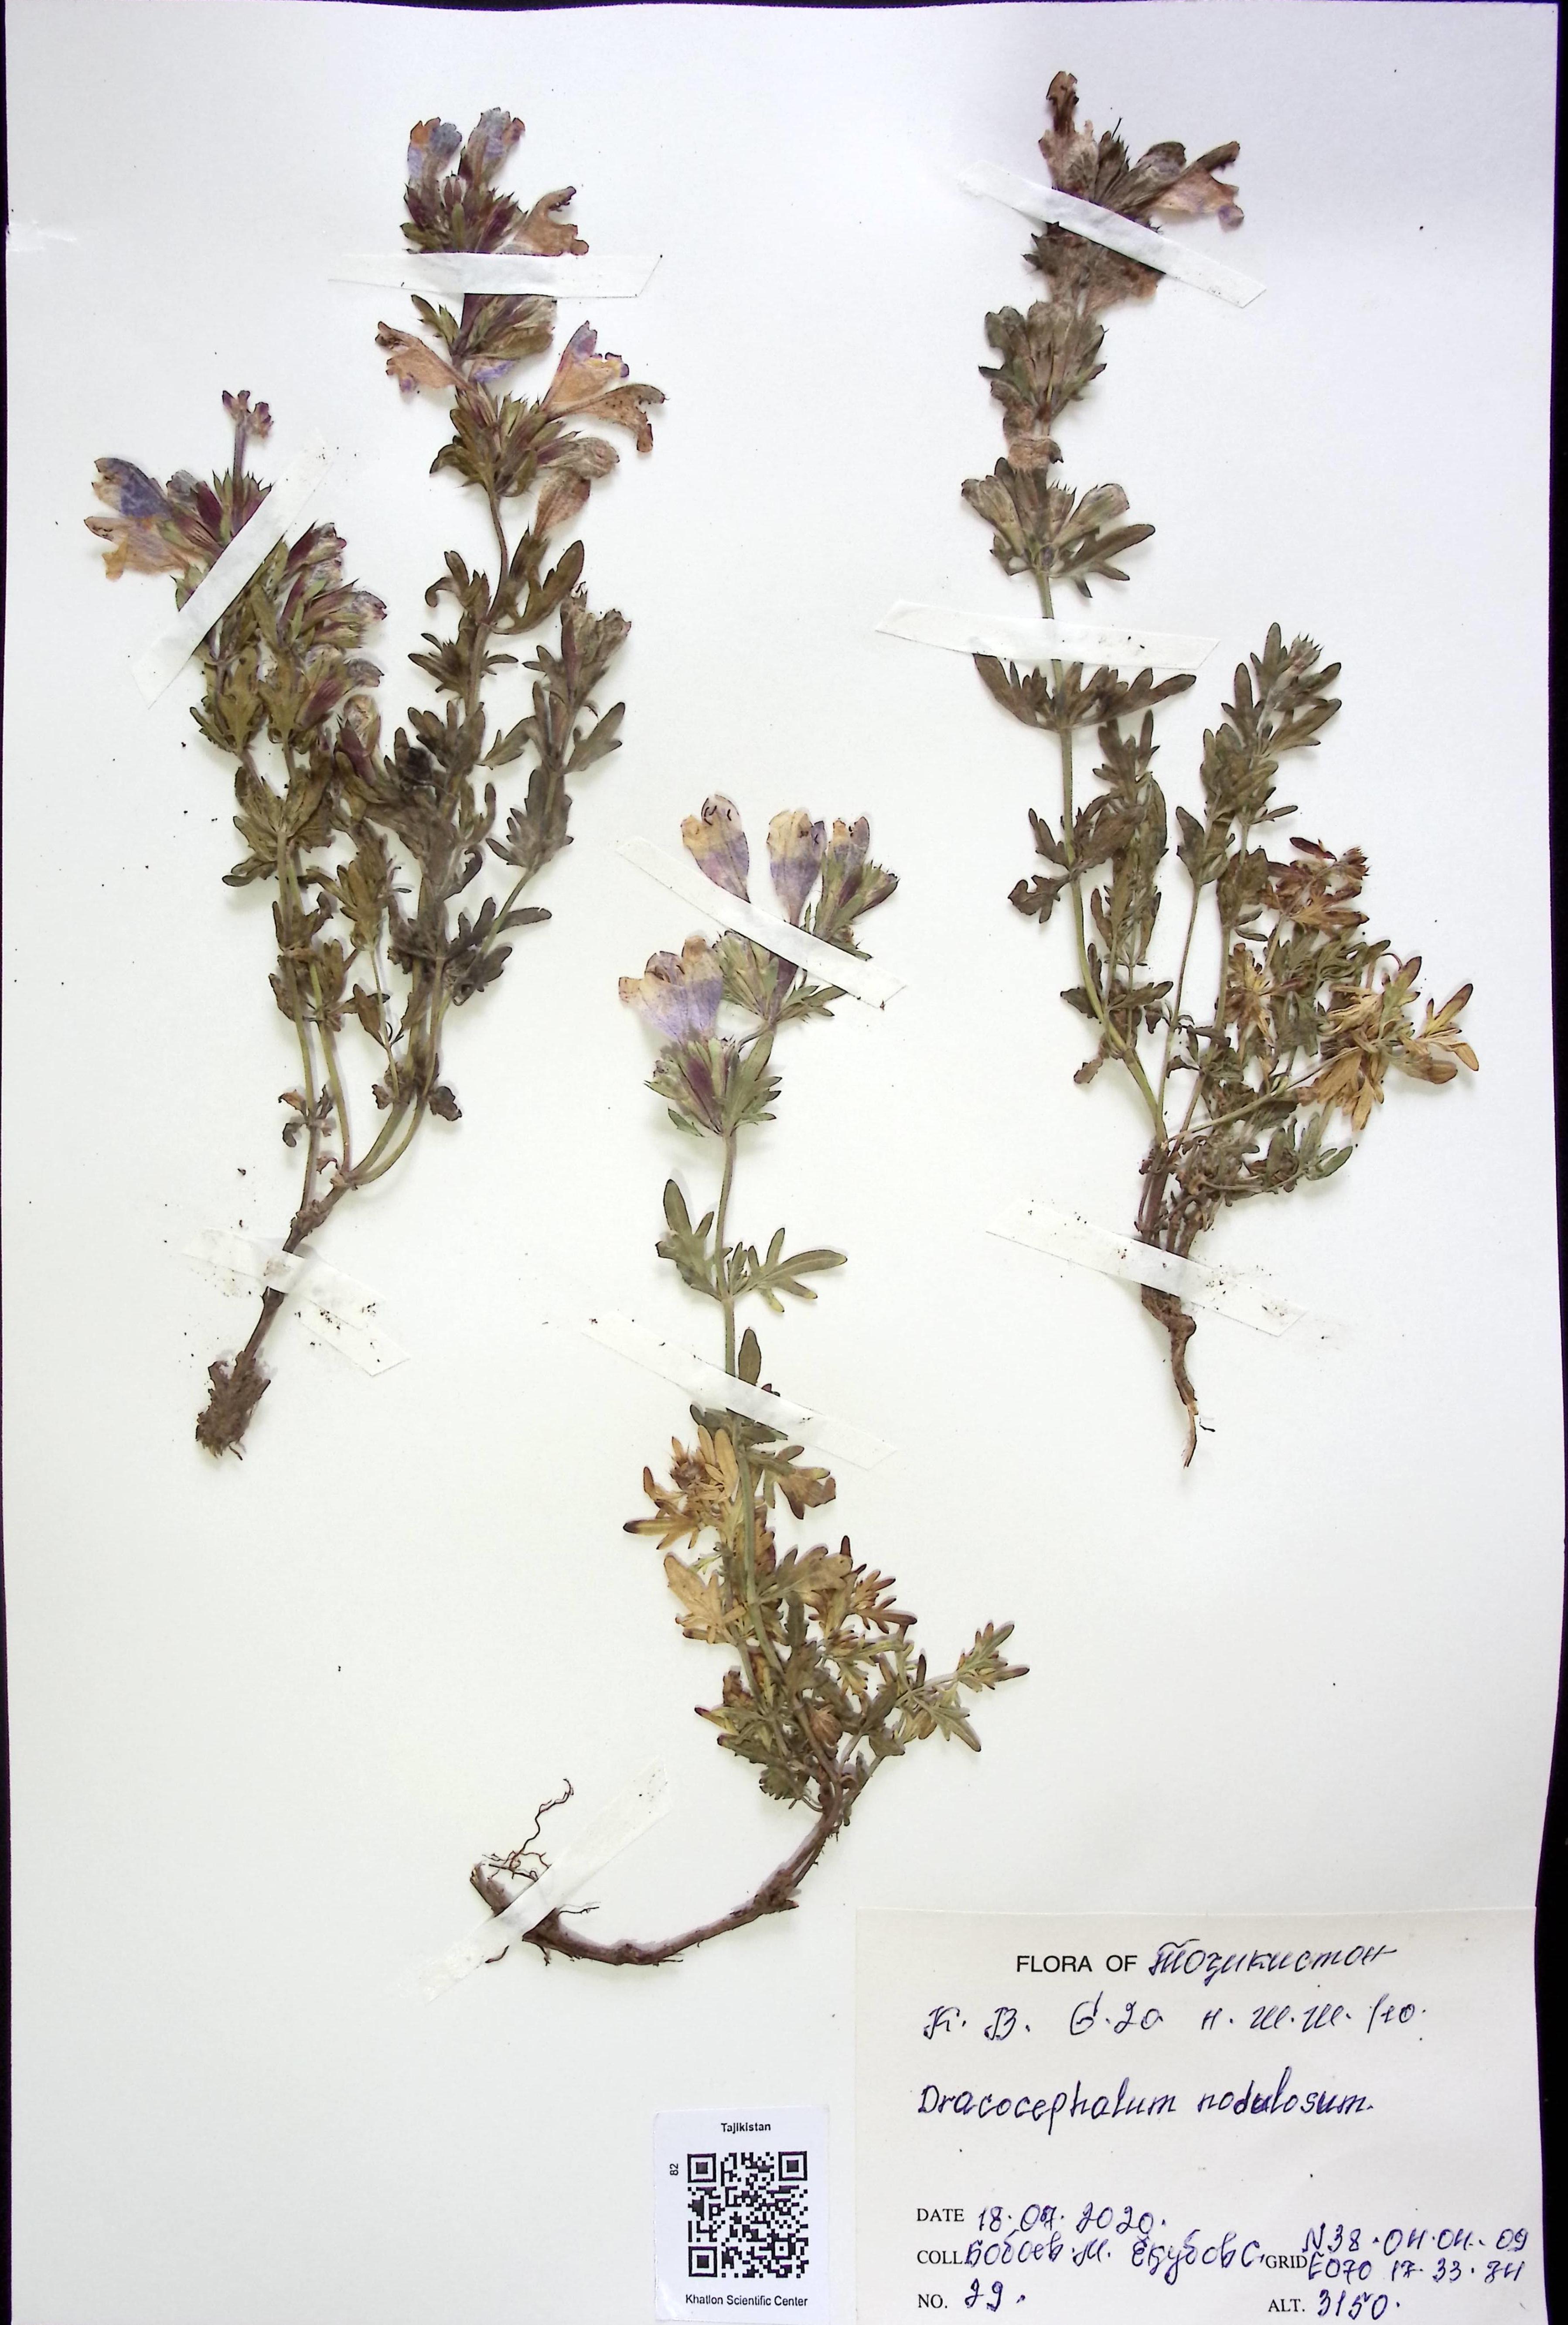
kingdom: Plantae
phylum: Tracheophyta
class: Magnoliopsida
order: Lamiales
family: Lamiaceae
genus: Dracocephalum
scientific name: Dracocephalum nodulosum
